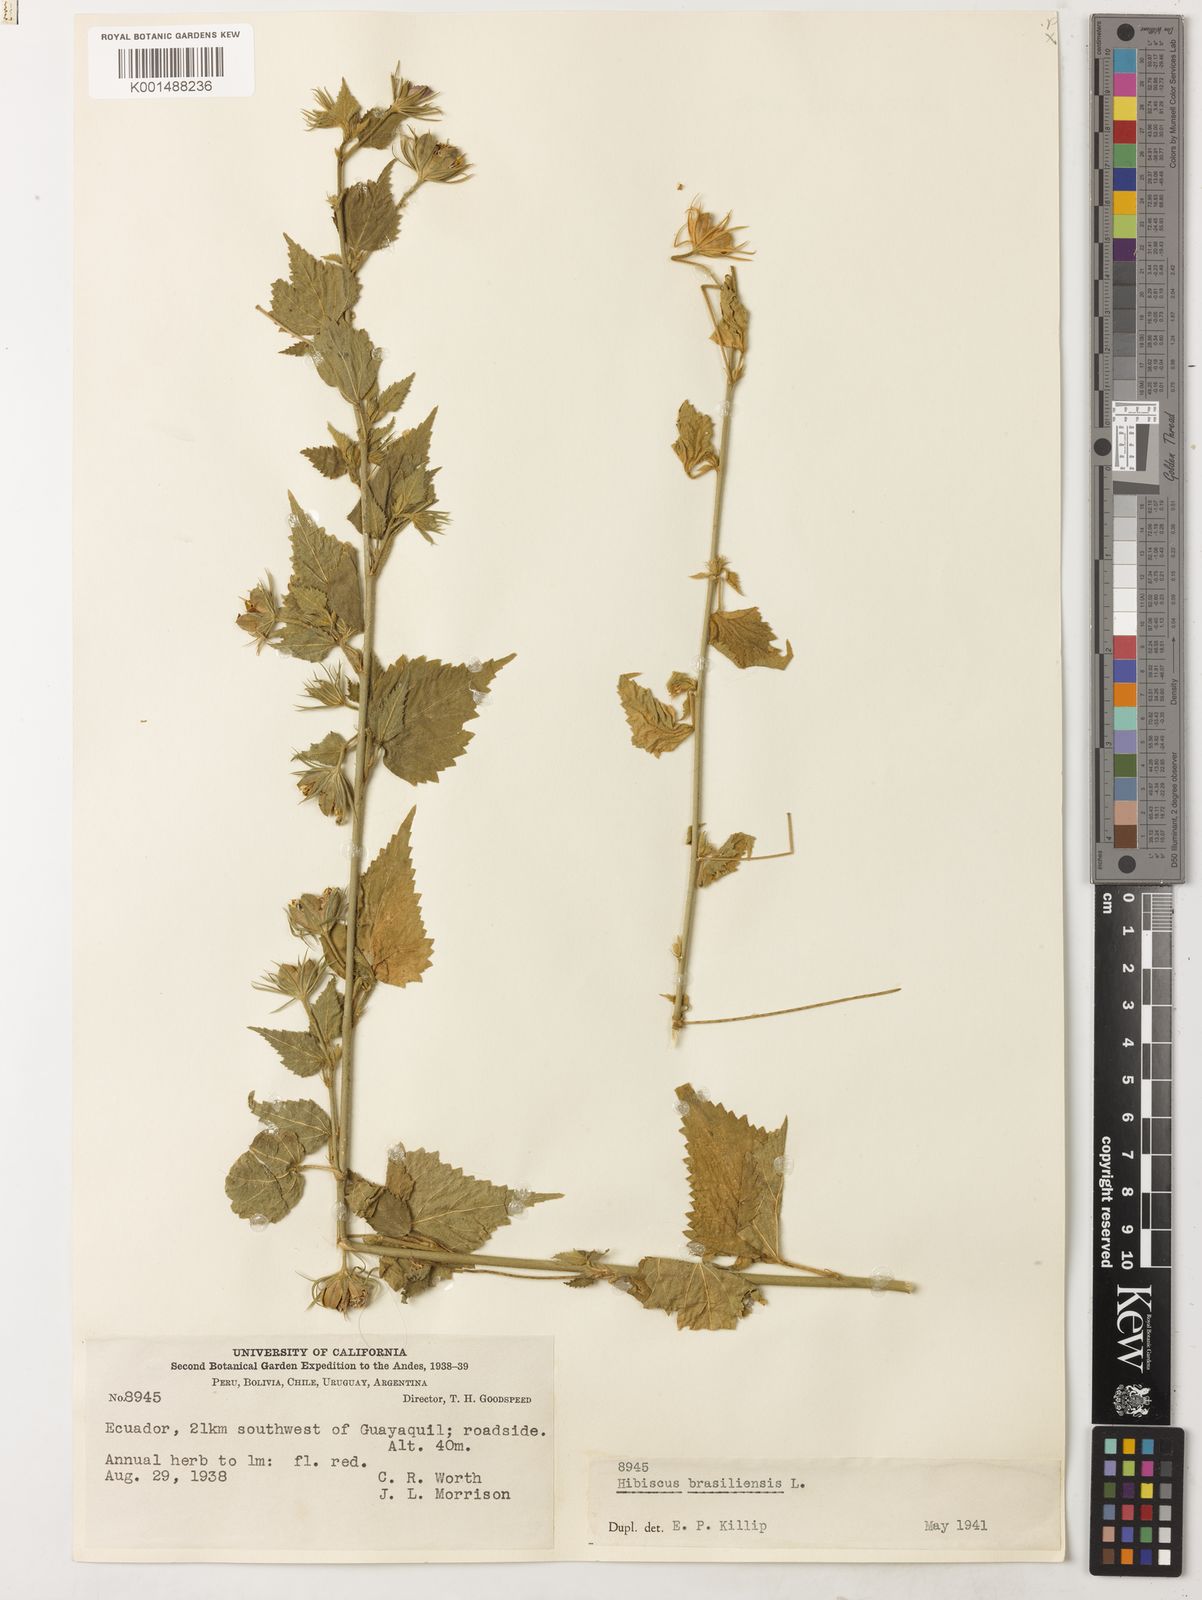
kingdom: Plantae
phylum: Tracheophyta
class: Magnoliopsida
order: Malvales
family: Malvaceae
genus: Hibiscus
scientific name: Hibiscus phoeniceus
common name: Brazilian rosemallow
